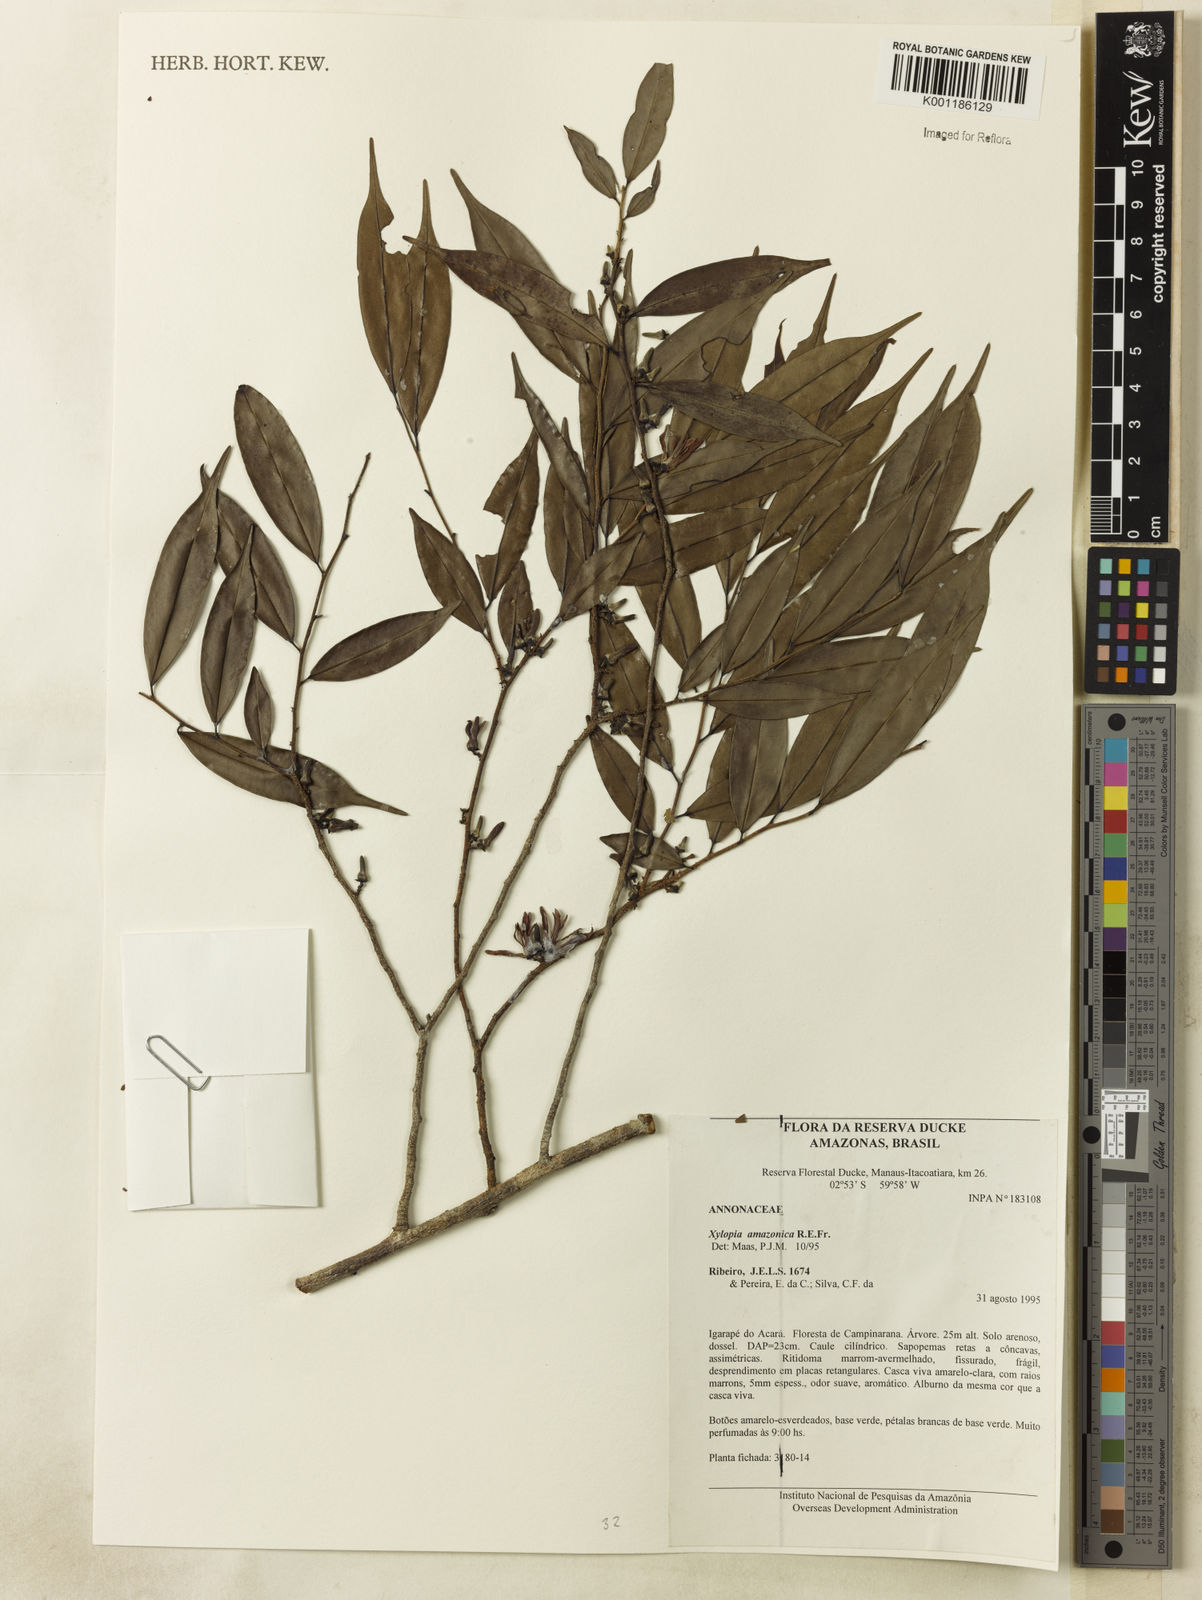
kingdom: Plantae
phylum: Tracheophyta
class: Magnoliopsida
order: Magnoliales
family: Annonaceae
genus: Xylopia
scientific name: Xylopia amazonica
